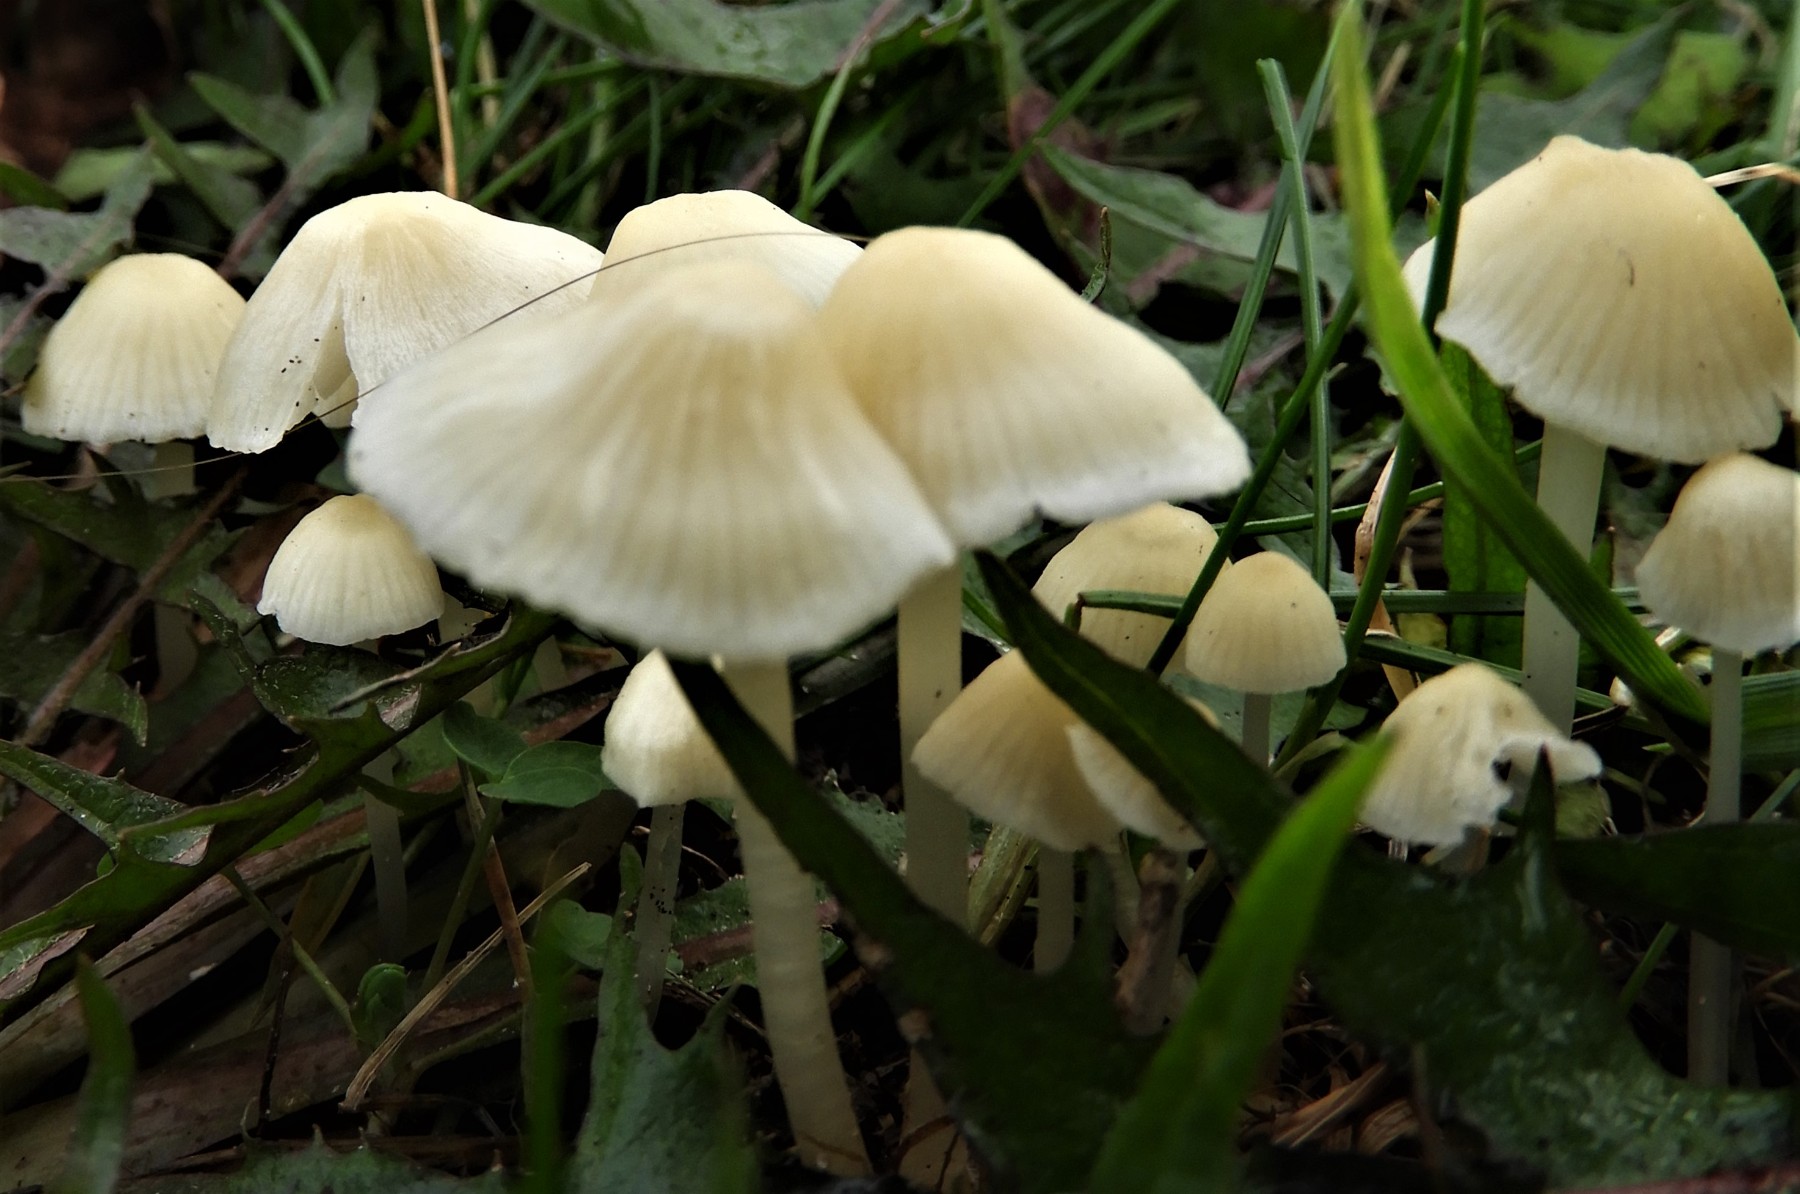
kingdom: Fungi
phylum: Basidiomycota
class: Agaricomycetes
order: Agaricales
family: Mycenaceae
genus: Atheniella
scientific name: Atheniella flavoalba
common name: gulhvid huesvamp
